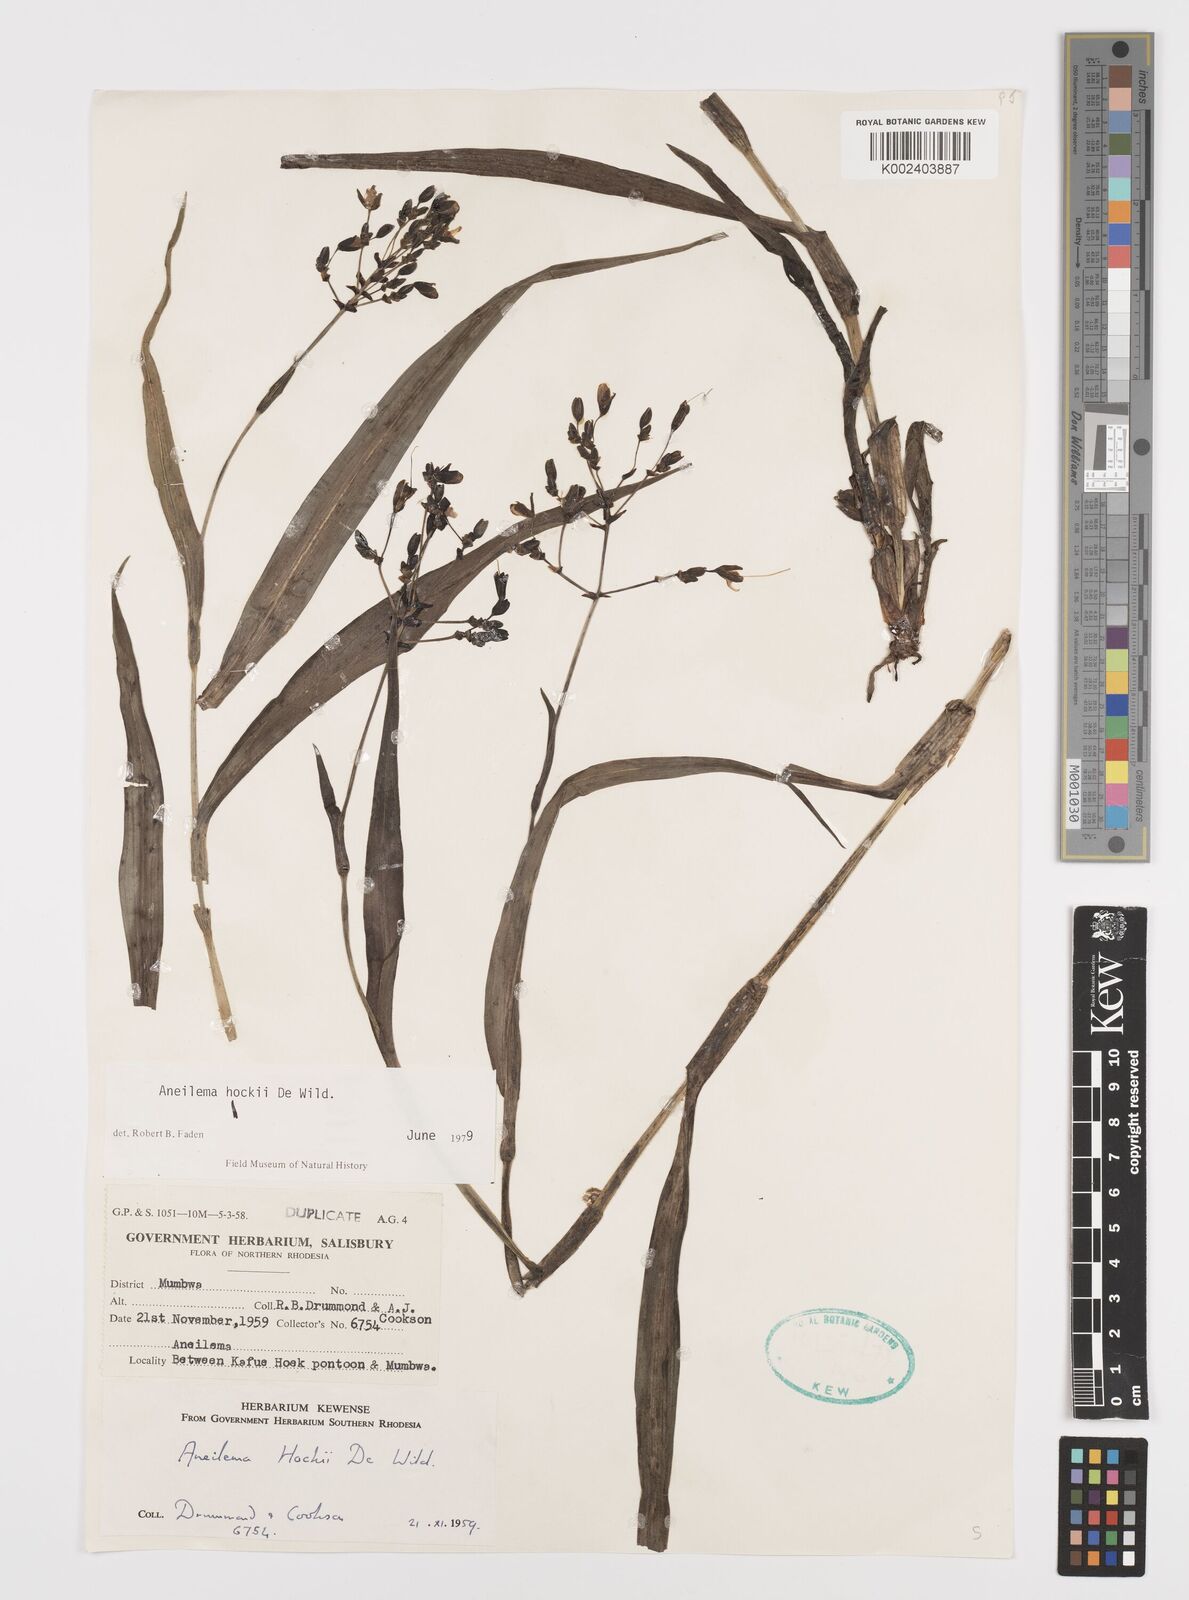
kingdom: Plantae
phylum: Tracheophyta
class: Liliopsida
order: Commelinales
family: Commelinaceae
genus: Aneilema
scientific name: Aneilema hockii
